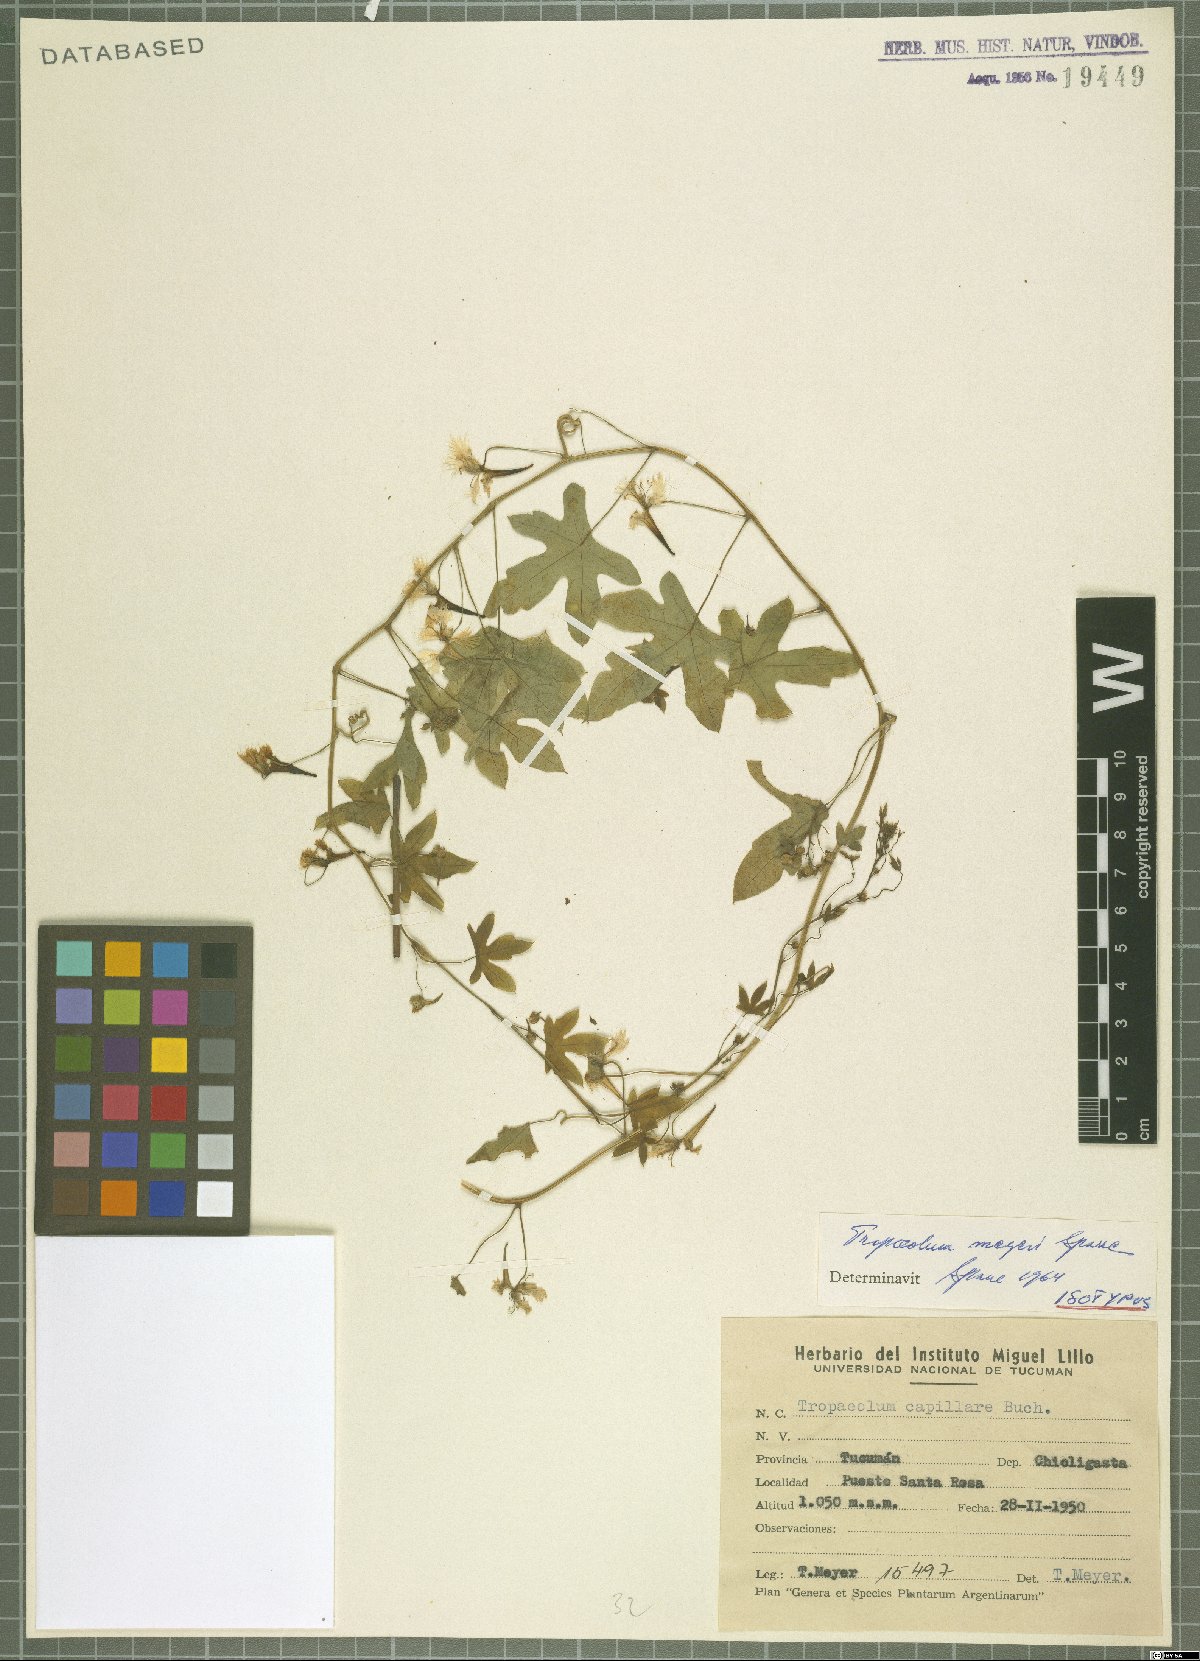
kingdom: Plantae
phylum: Tracheophyta
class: Magnoliopsida
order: Brassicales
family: Tropaeolaceae
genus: Tropaeolum
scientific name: Tropaeolum meyeri
